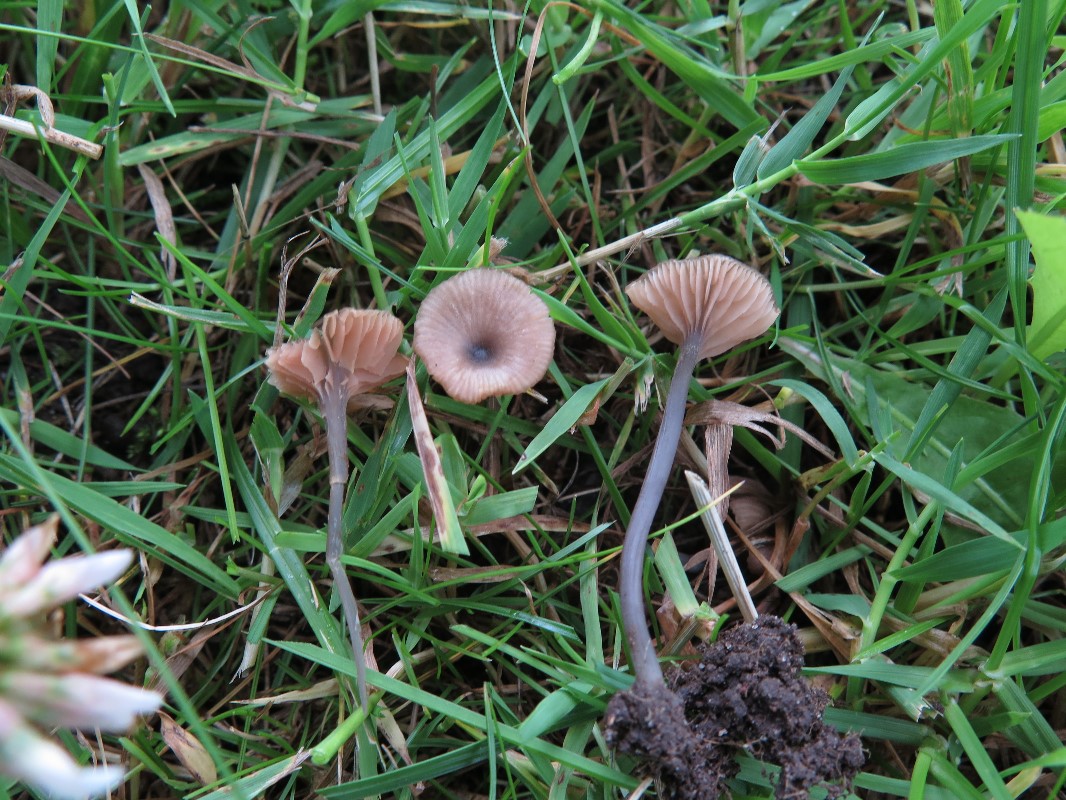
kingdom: Fungi
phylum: Basidiomycota
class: Agaricomycetes
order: Agaricales
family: Entolomataceae
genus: Entoloma
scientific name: Entoloma incarnatofuscescens
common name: tragt-rødblad
